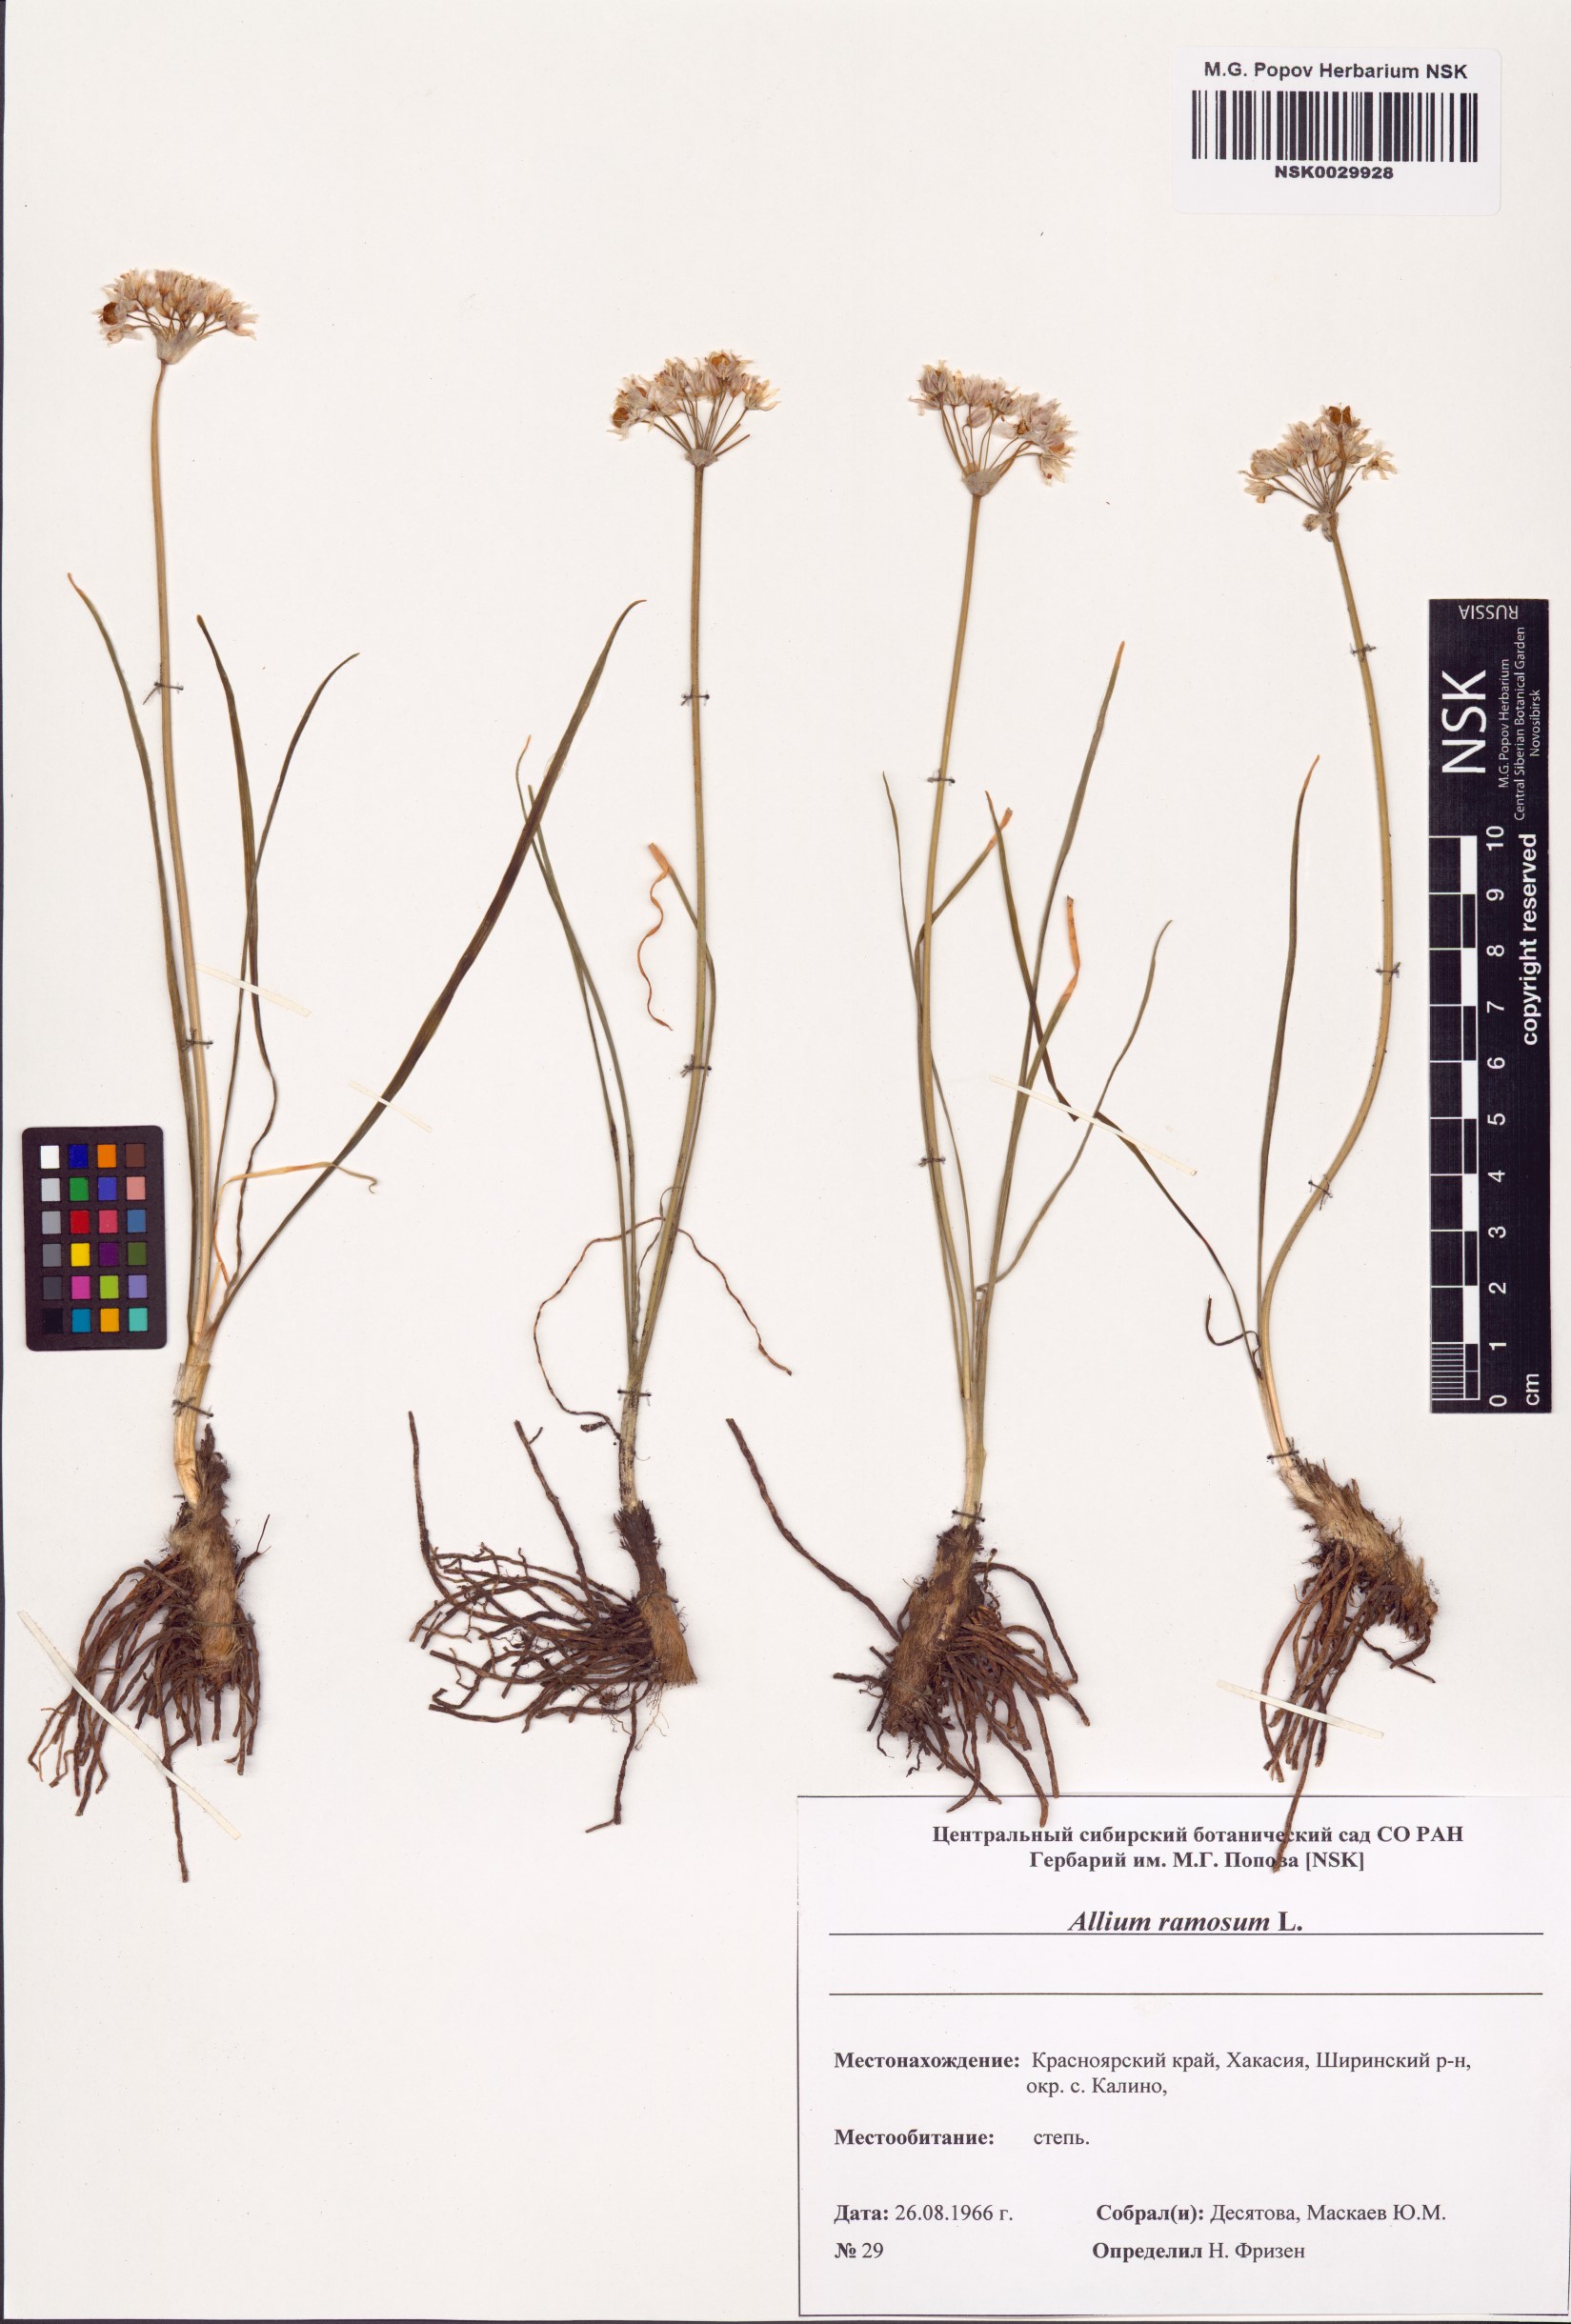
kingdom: Plantae
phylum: Tracheophyta
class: Liliopsida
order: Asparagales
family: Amaryllidaceae
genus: Allium
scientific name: Allium ramosum
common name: Fragrant garlic
